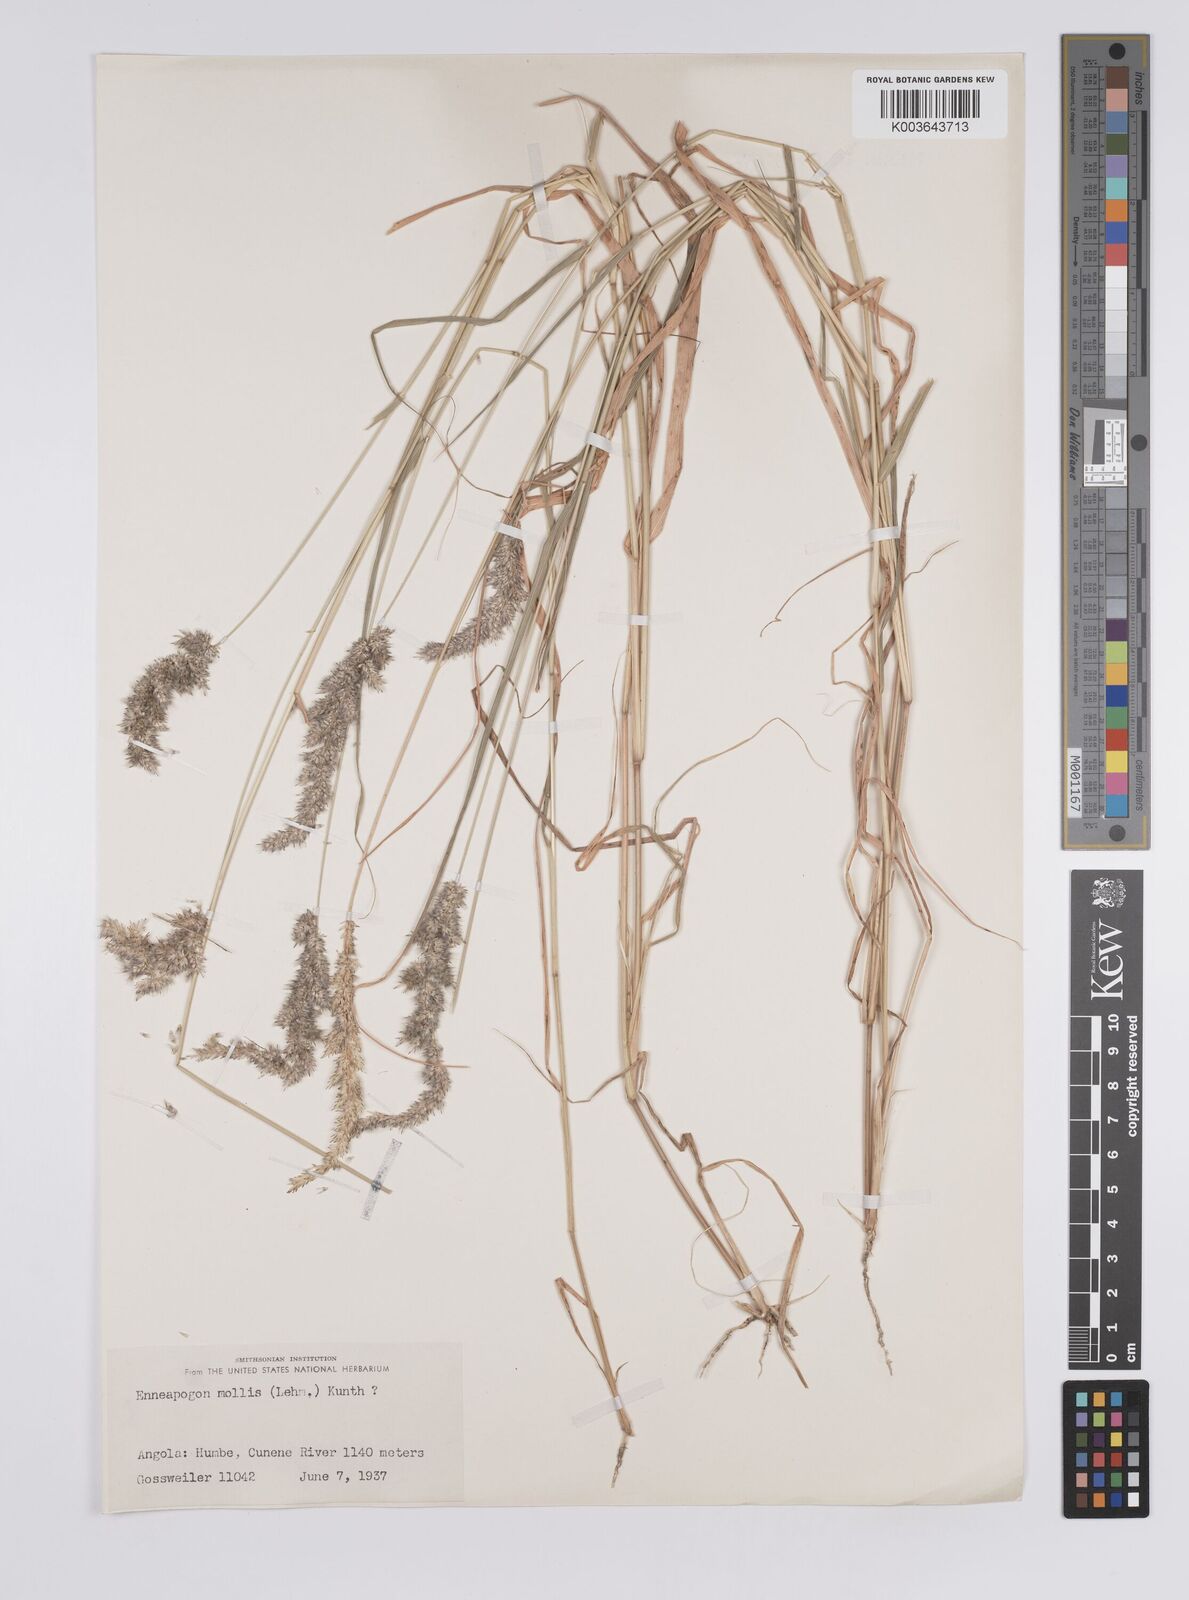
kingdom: Plantae
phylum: Tracheophyta
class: Liliopsida
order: Poales
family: Poaceae
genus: Enneapogon
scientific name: Enneapogon cenchroides
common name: Soft feather pappusgrass
